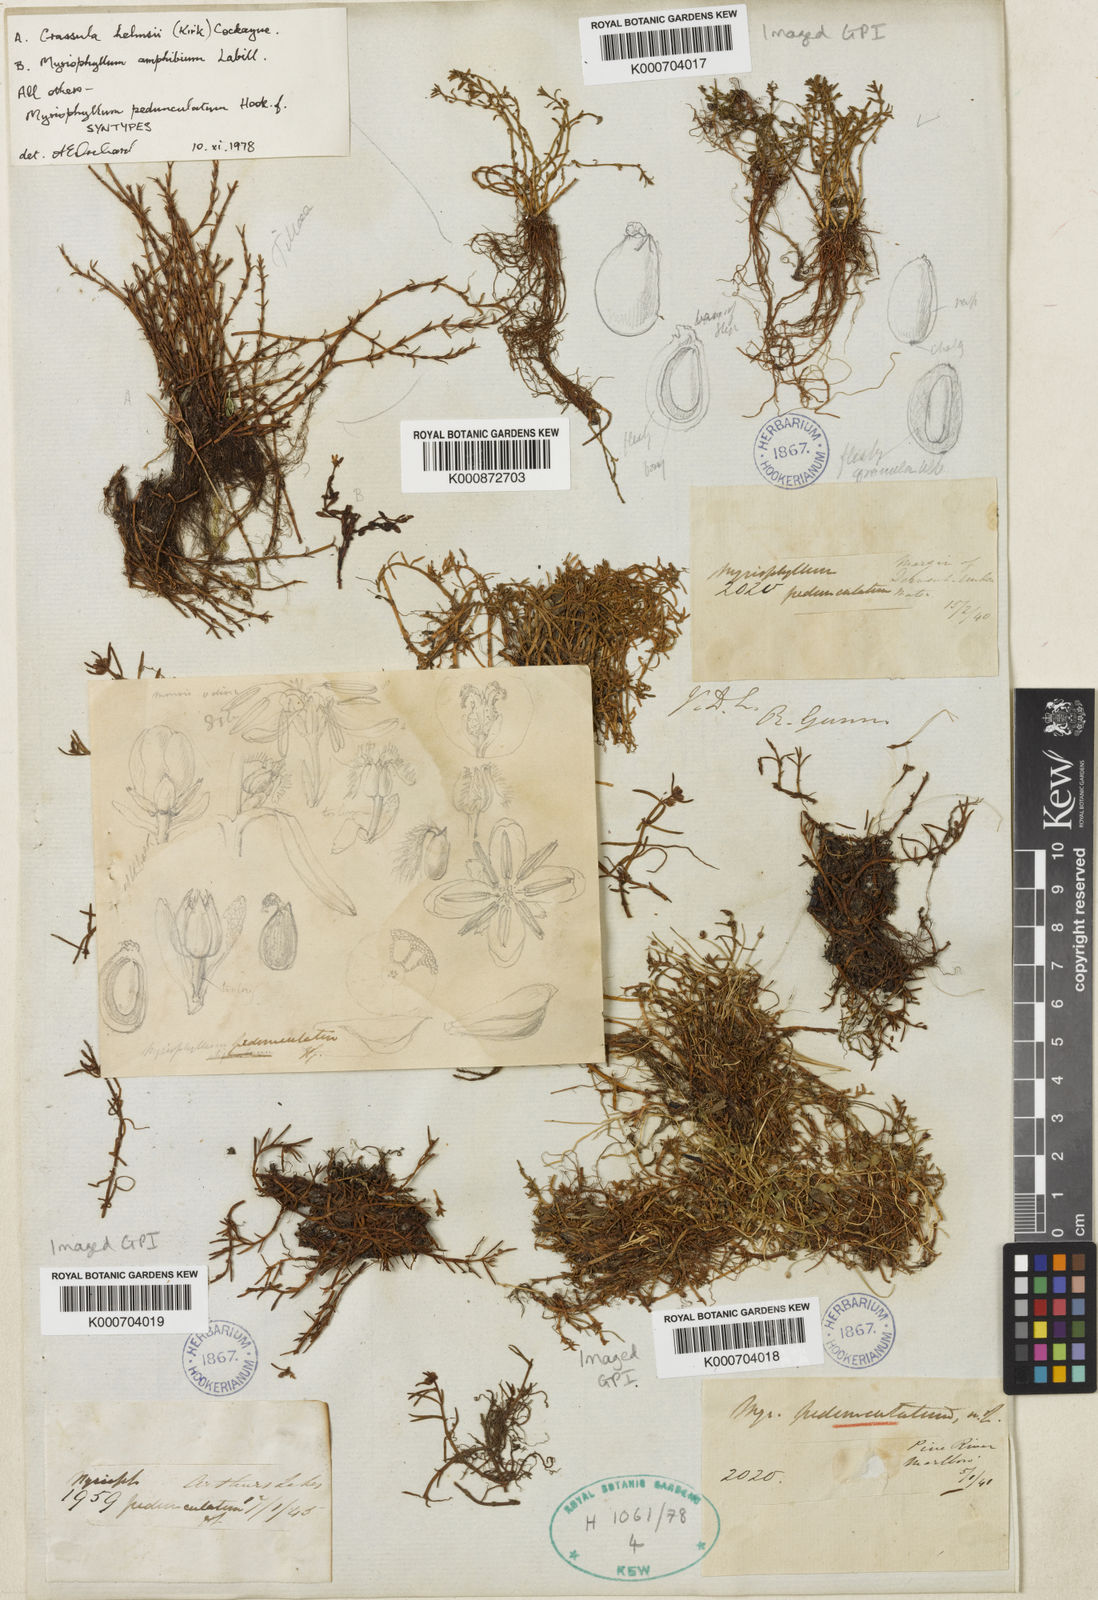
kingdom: Plantae
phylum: Tracheophyta
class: Magnoliopsida
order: Saxifragales
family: Haloragaceae
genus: Myriophyllum
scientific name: Myriophyllum pedunculatum
